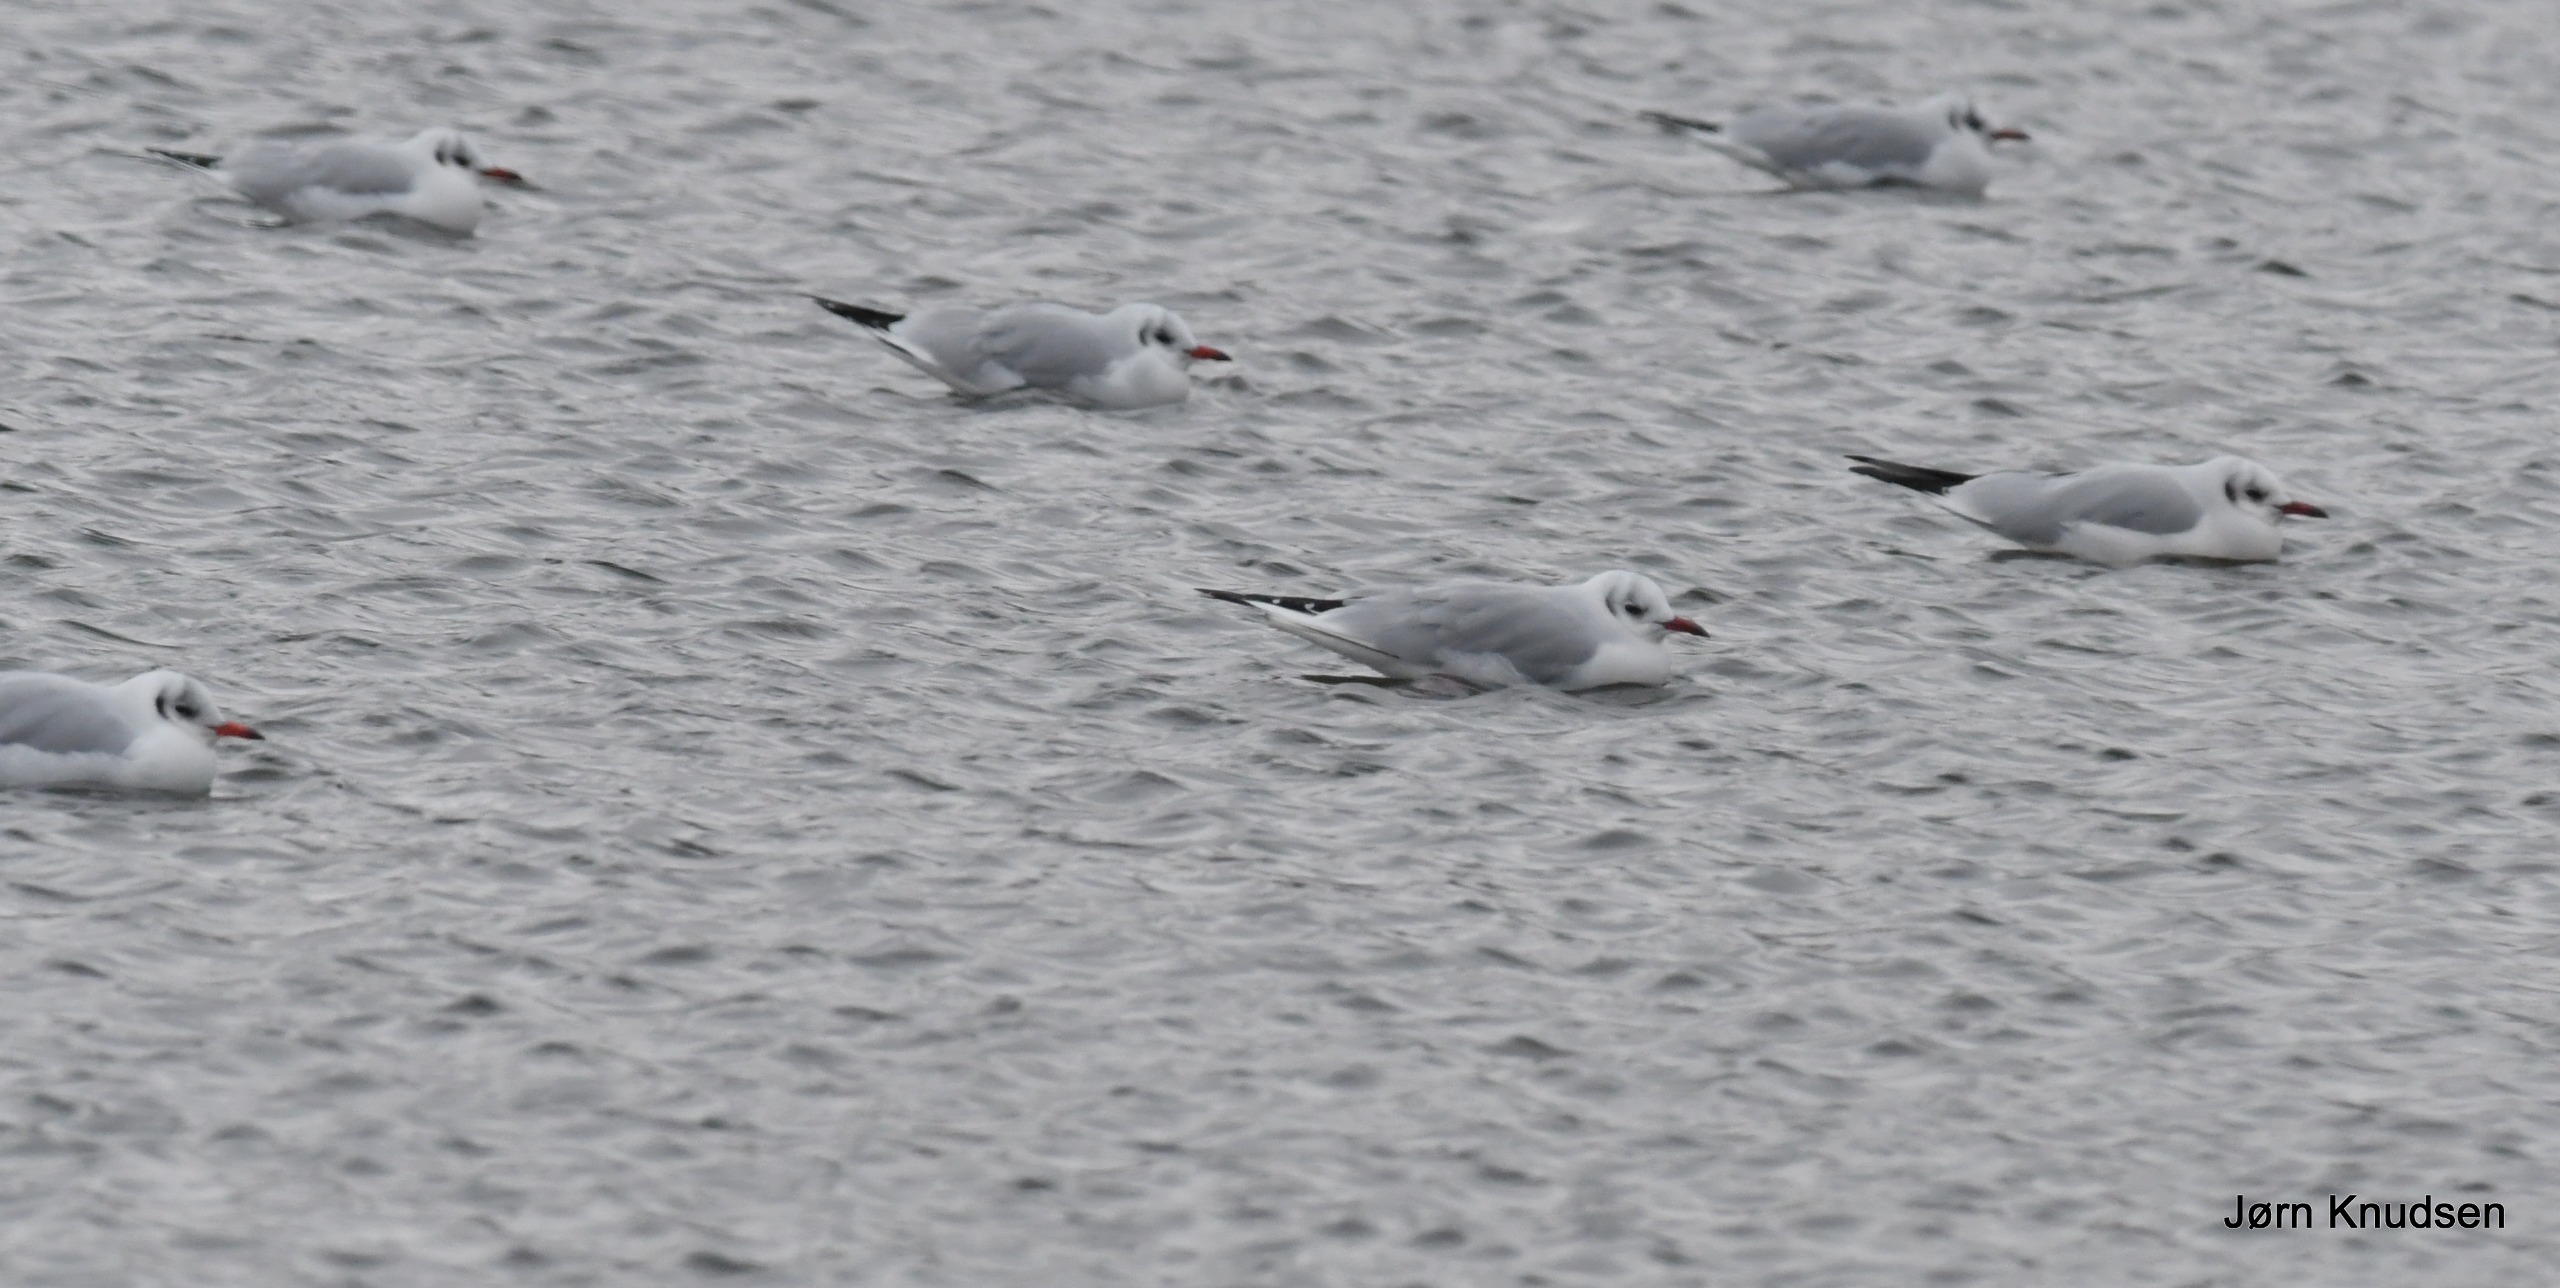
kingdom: Animalia
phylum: Chordata
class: Aves
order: Charadriiformes
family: Laridae
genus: Chroicocephalus
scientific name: Chroicocephalus ridibundus
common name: Hættemåge
